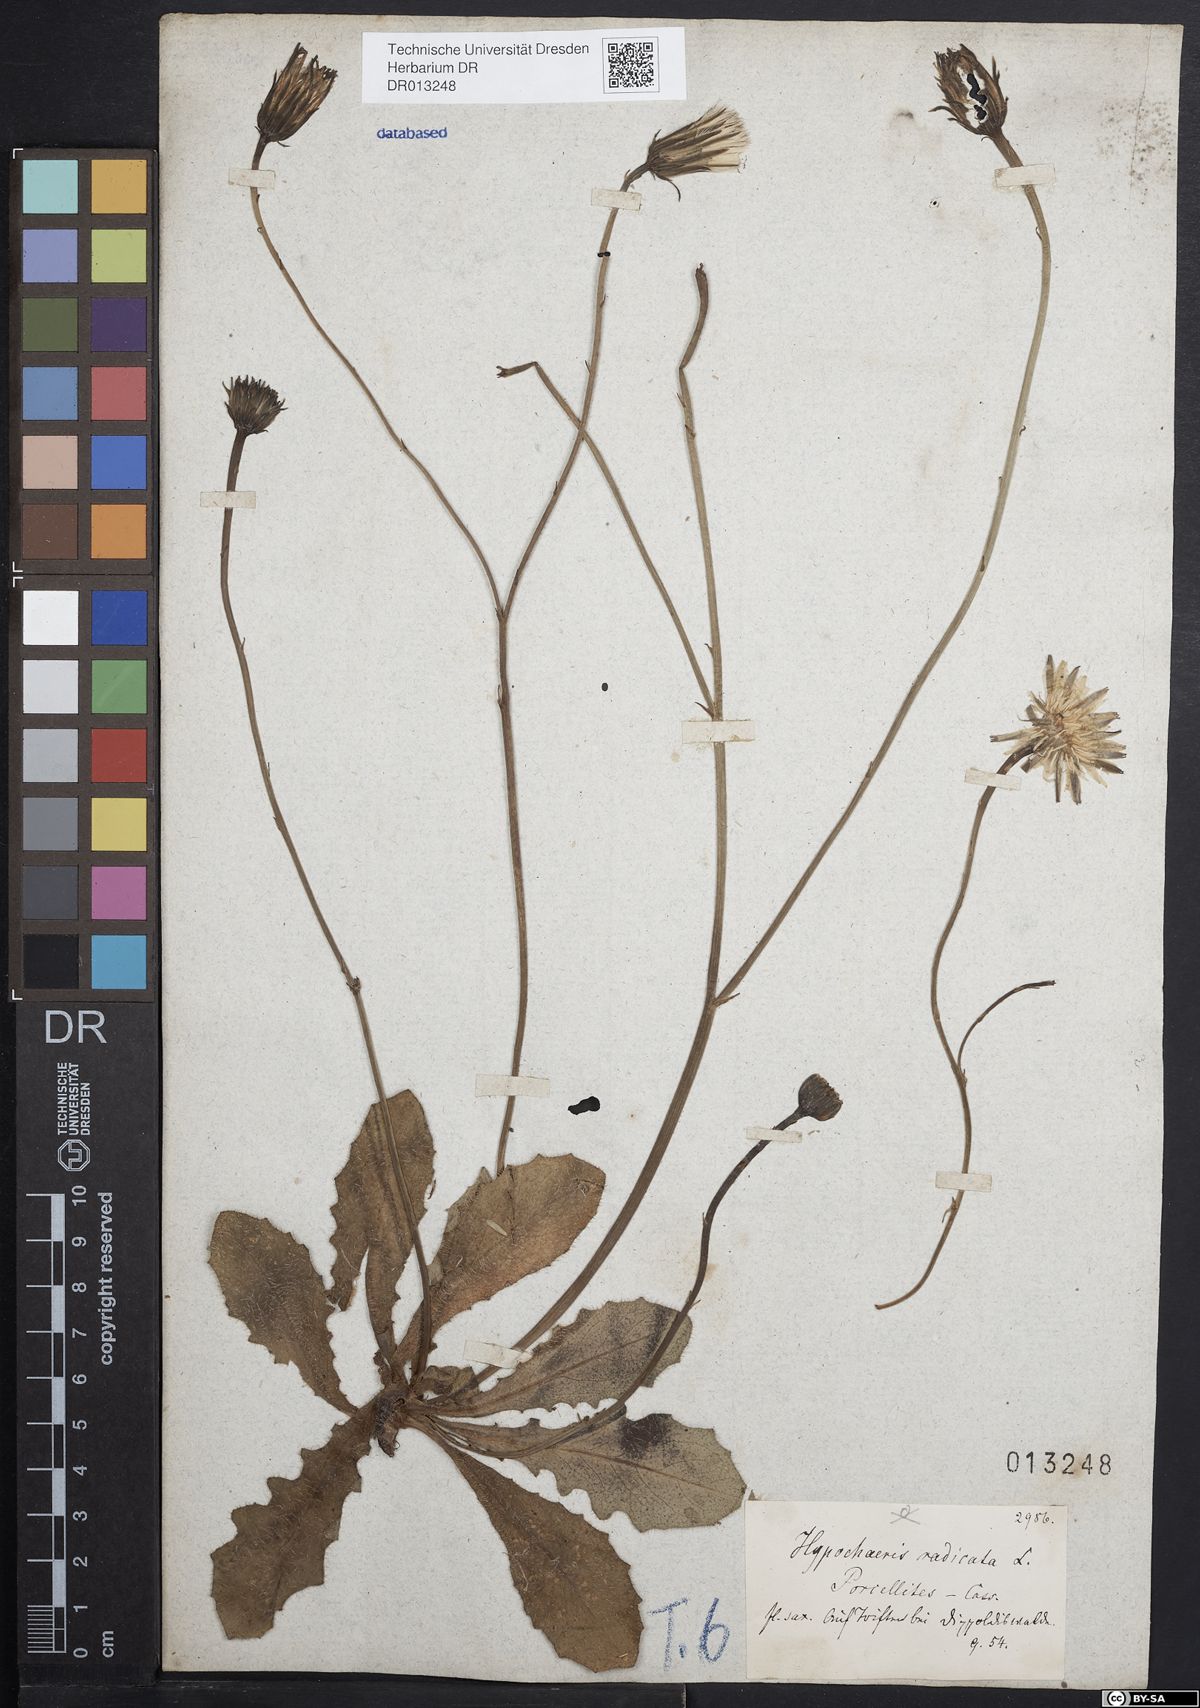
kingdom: Plantae
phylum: Tracheophyta
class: Magnoliopsida
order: Asterales
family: Asteraceae
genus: Hypochaeris
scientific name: Hypochaeris radicata
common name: Flatweed
